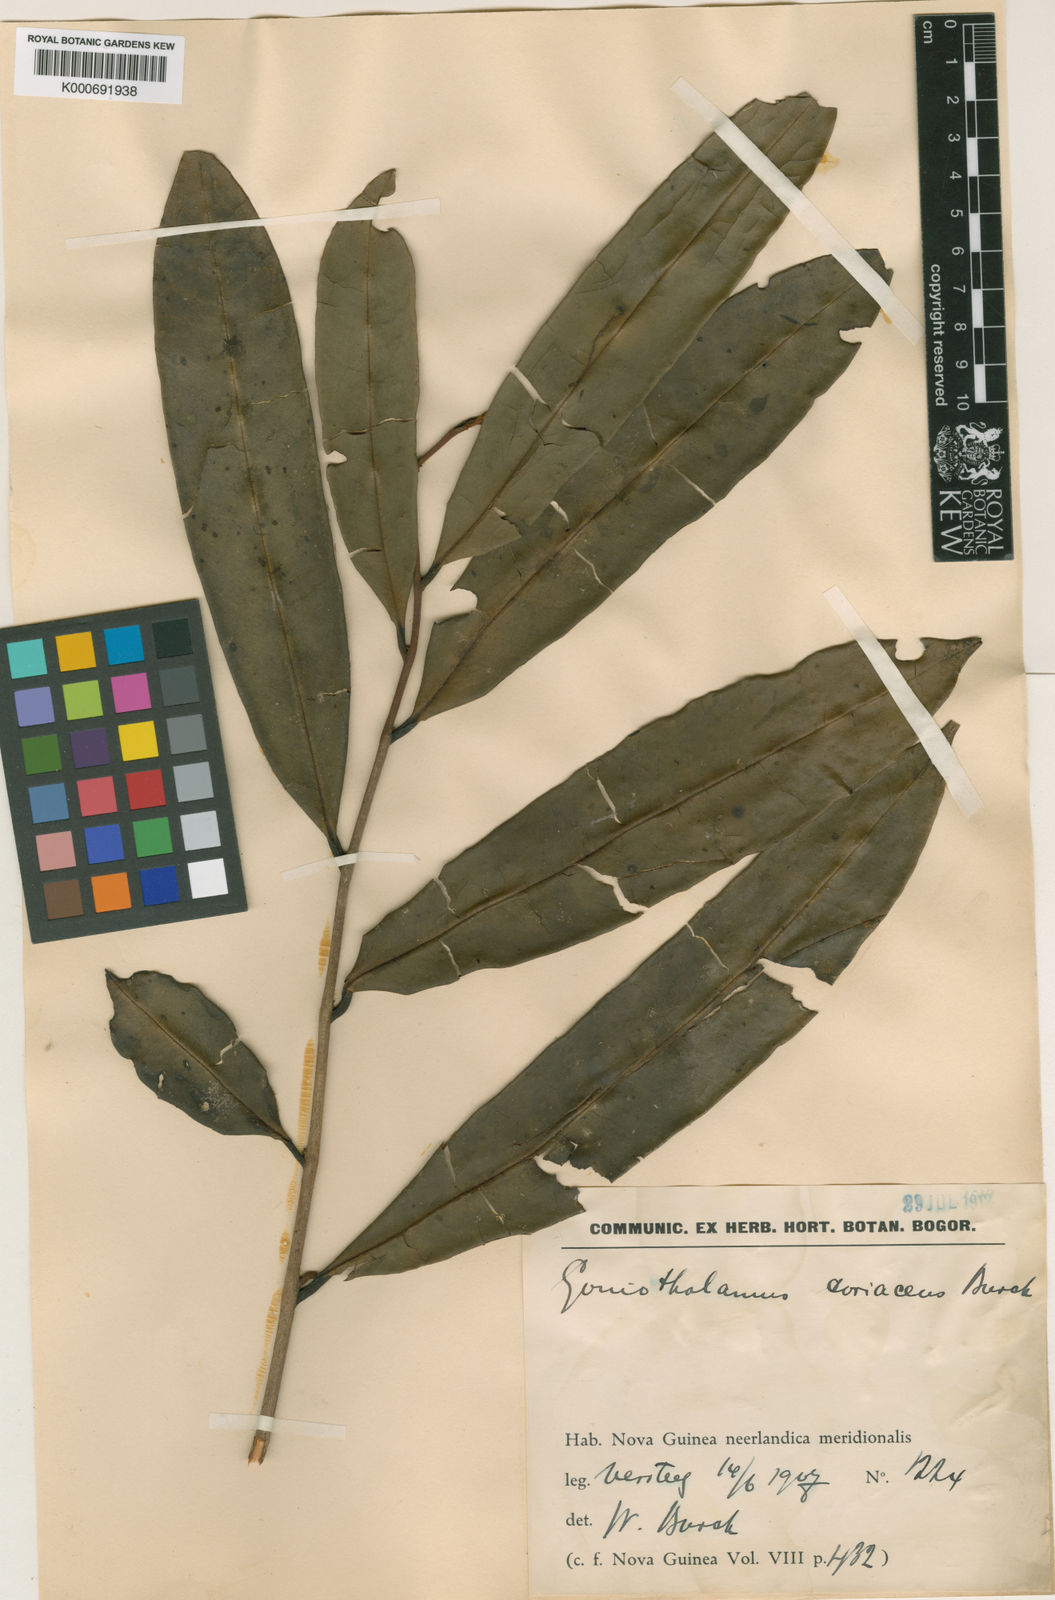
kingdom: Plantae
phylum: Tracheophyta
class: Magnoliopsida
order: Magnoliales
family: Annonaceae
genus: Goniothalamus
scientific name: Goniothalamus coriaceus
